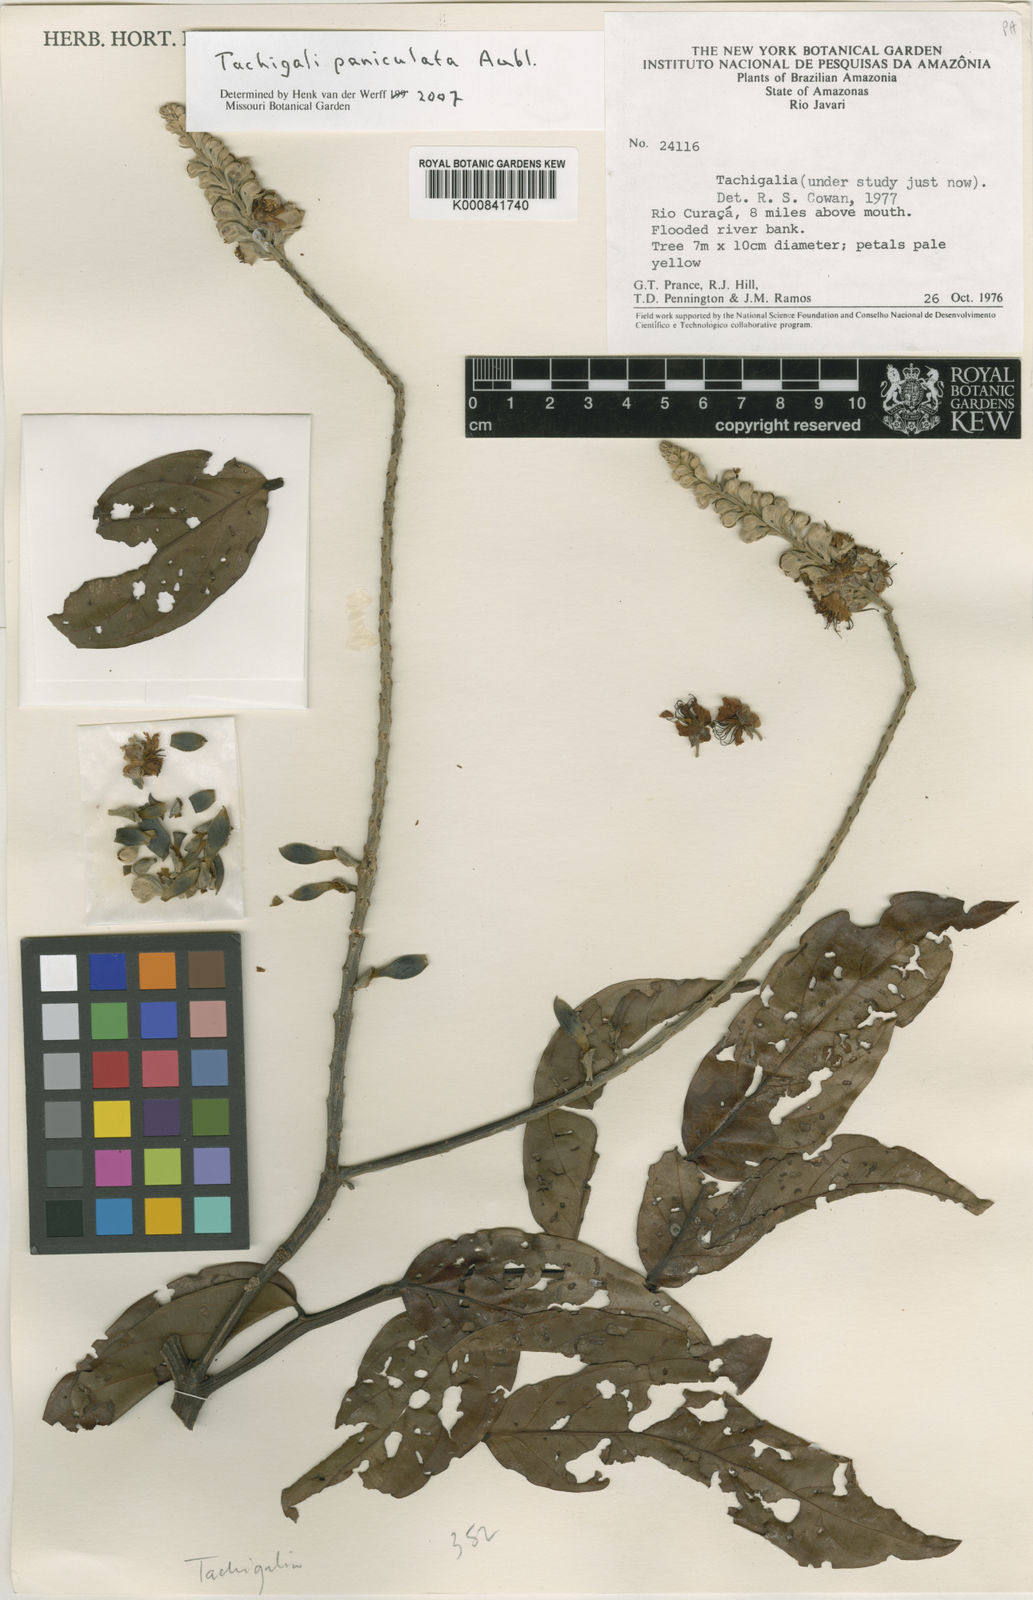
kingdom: Plantae
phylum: Tracheophyta
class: Magnoliopsida
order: Fabales
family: Fabaceae
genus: Tachigali
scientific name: Tachigali paniculata
